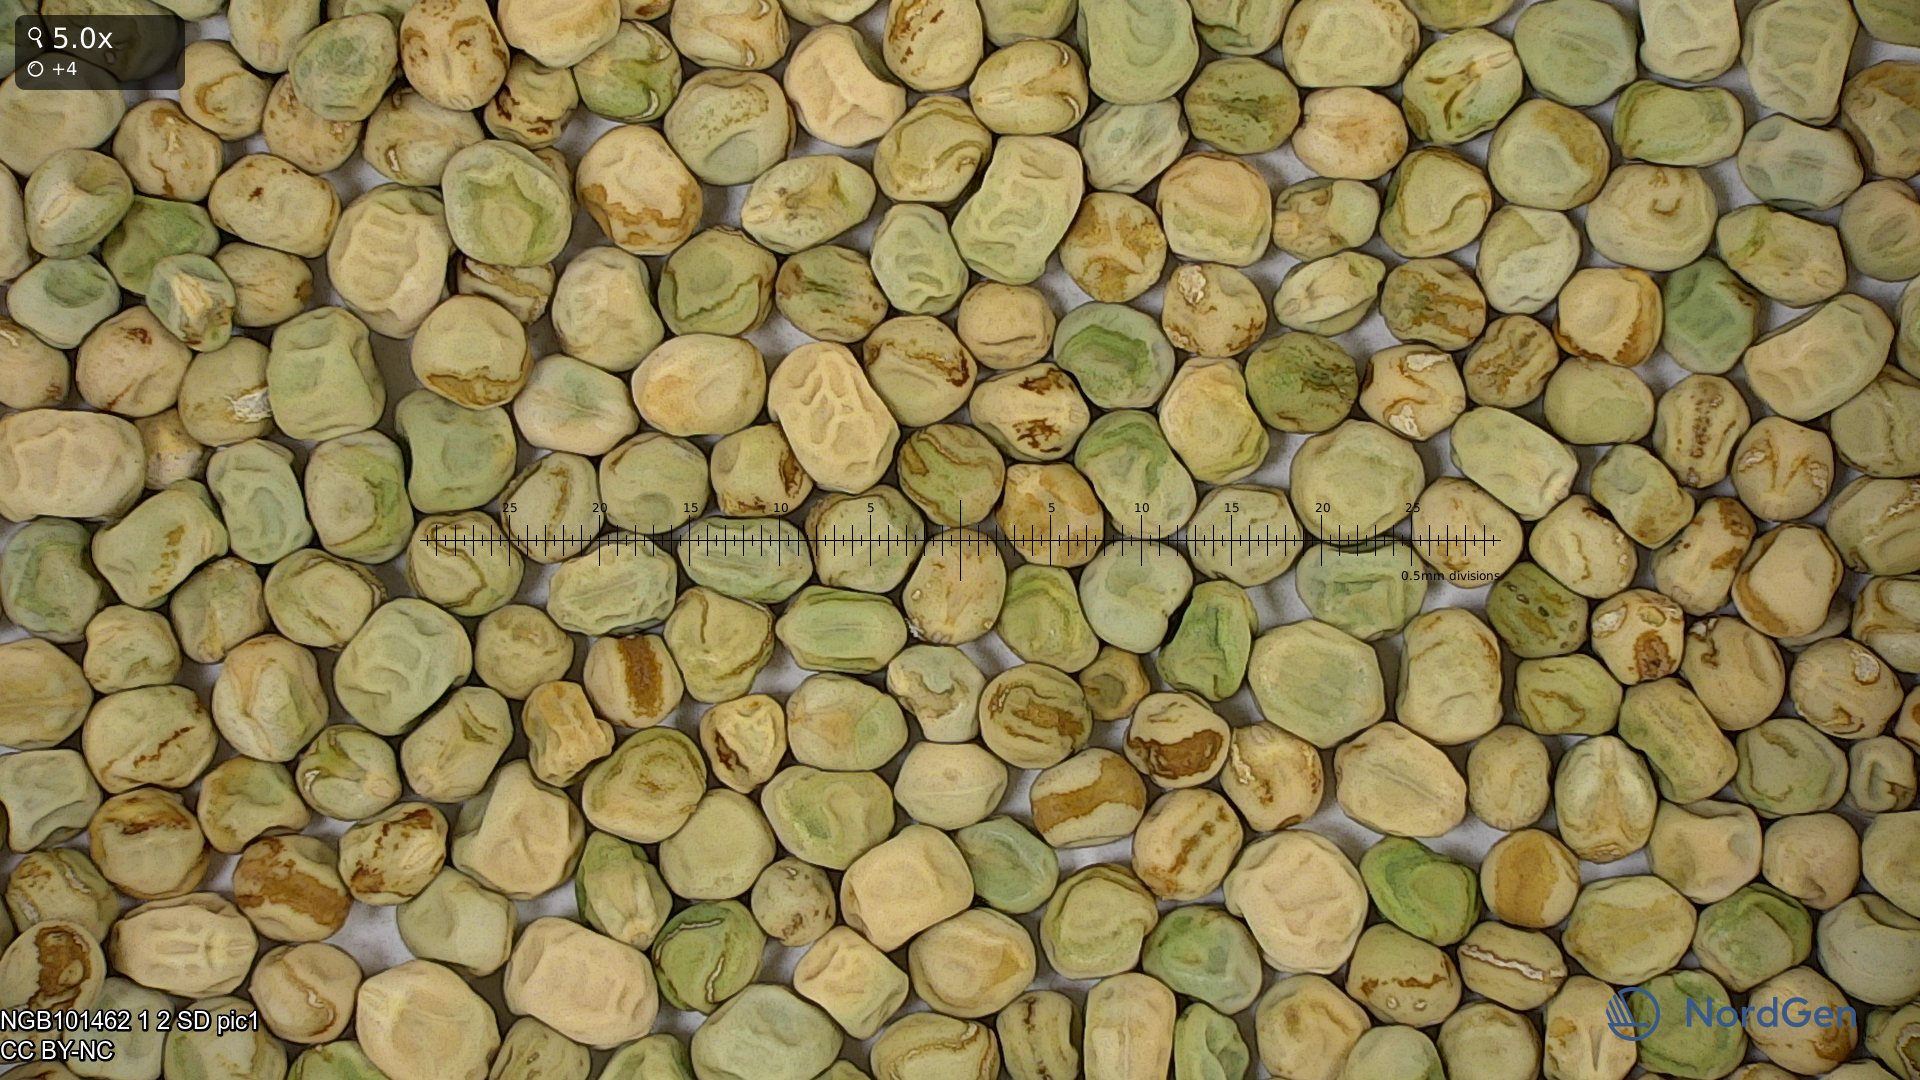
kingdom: Plantae
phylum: Tracheophyta
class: Magnoliopsida
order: Fabales
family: Fabaceae
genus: Lathyrus
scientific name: Lathyrus oleraceus
